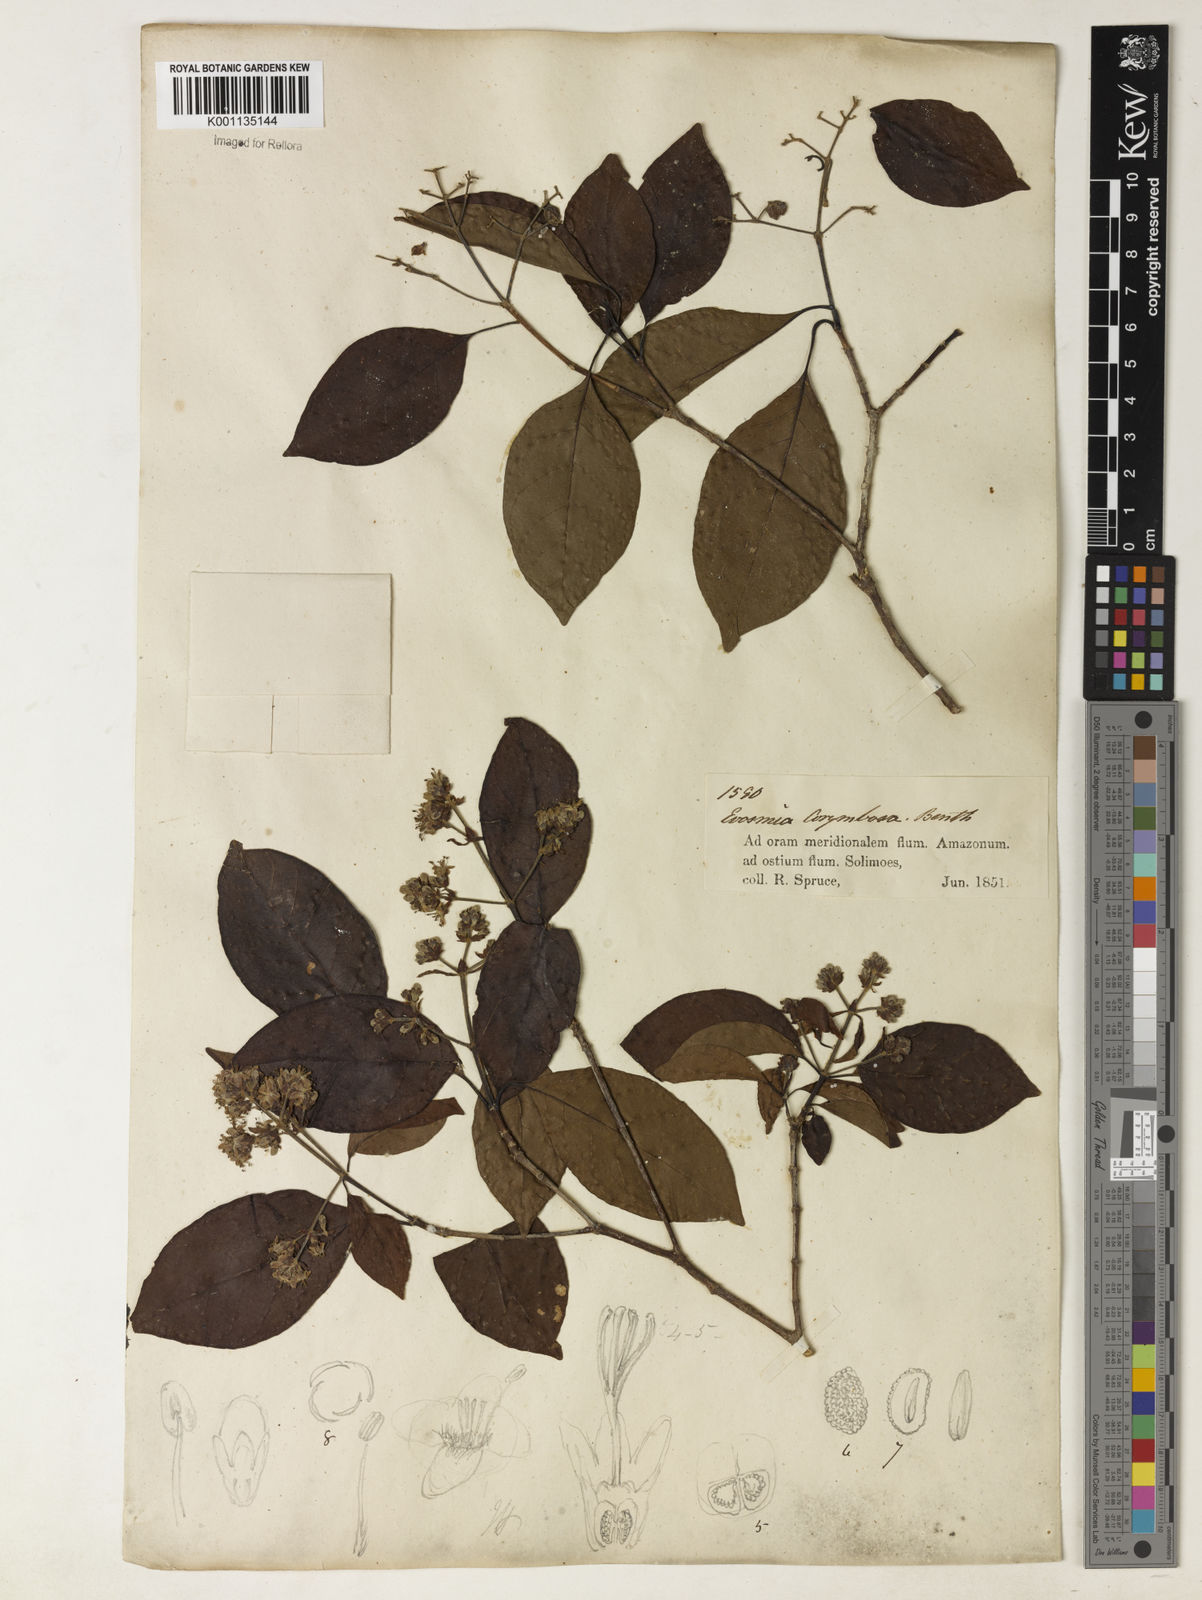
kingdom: Plantae
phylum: Tracheophyta
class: Magnoliopsida
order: Gentianales
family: Rubiaceae
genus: Bothriospora
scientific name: Bothriospora corymbosa
